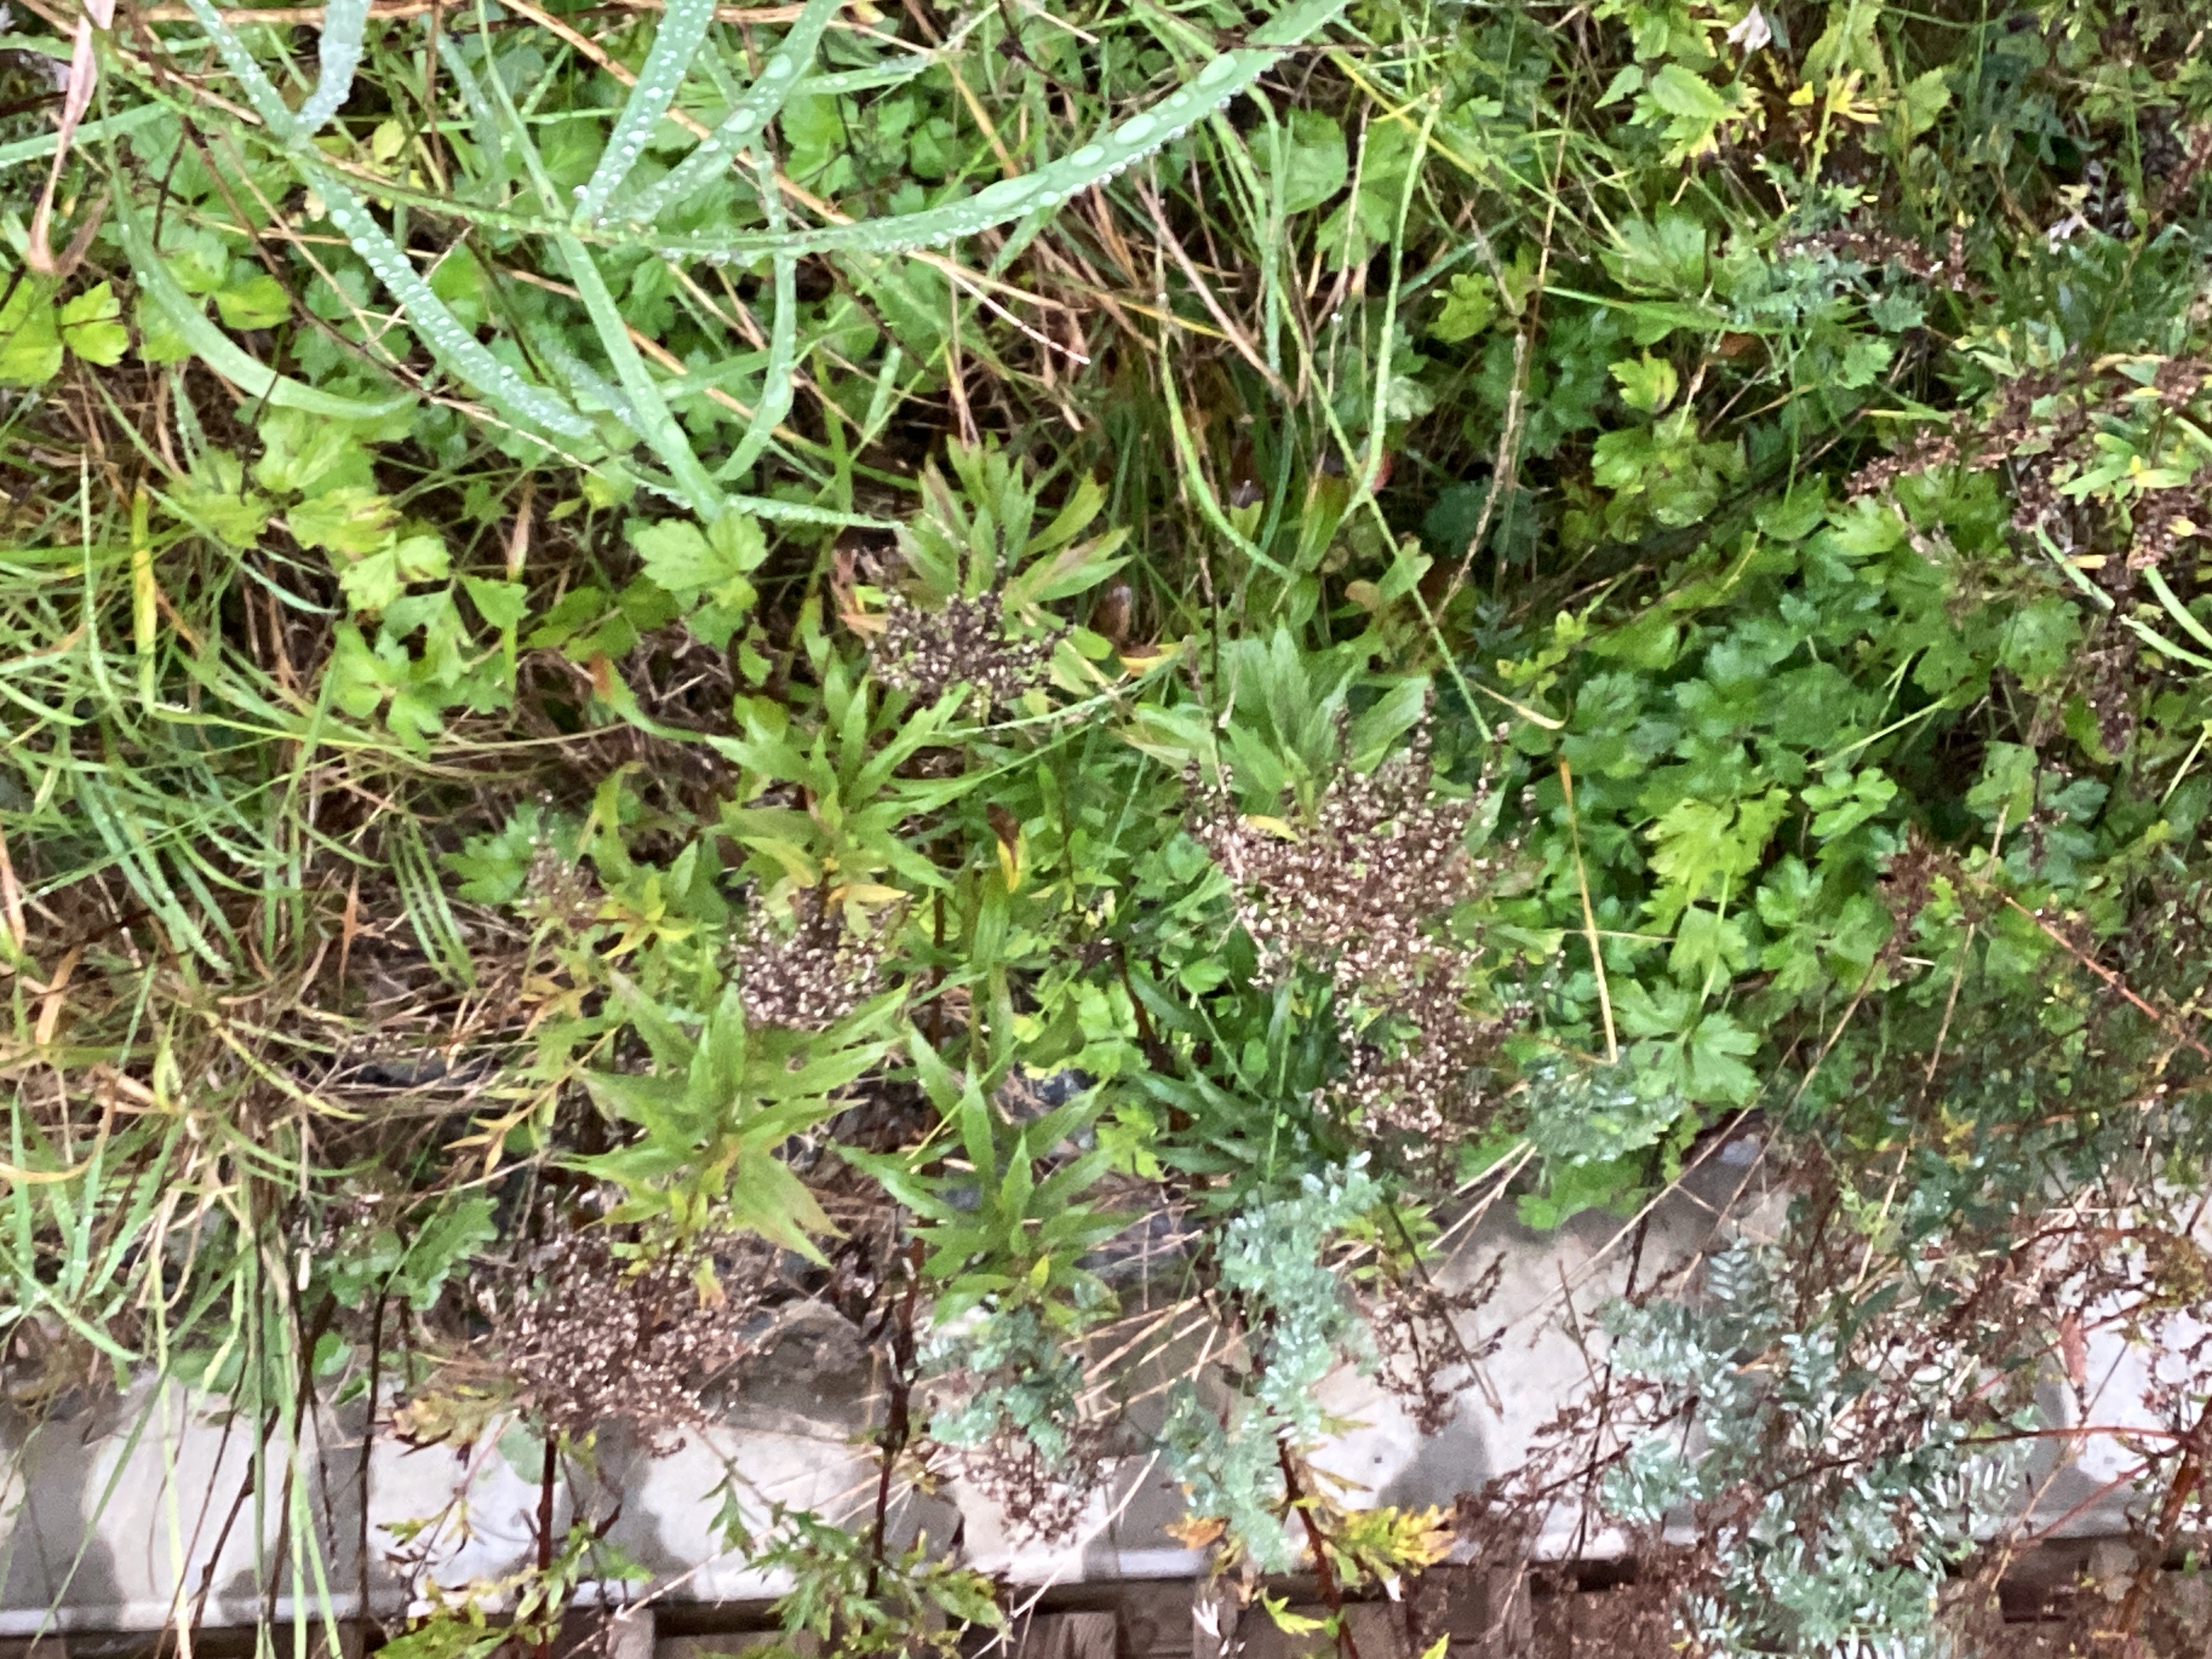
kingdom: Plantae
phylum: Tracheophyta
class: Magnoliopsida
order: Asterales
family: Asteraceae
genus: Solidago
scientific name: Solidago canadensis
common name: kanadagullris
